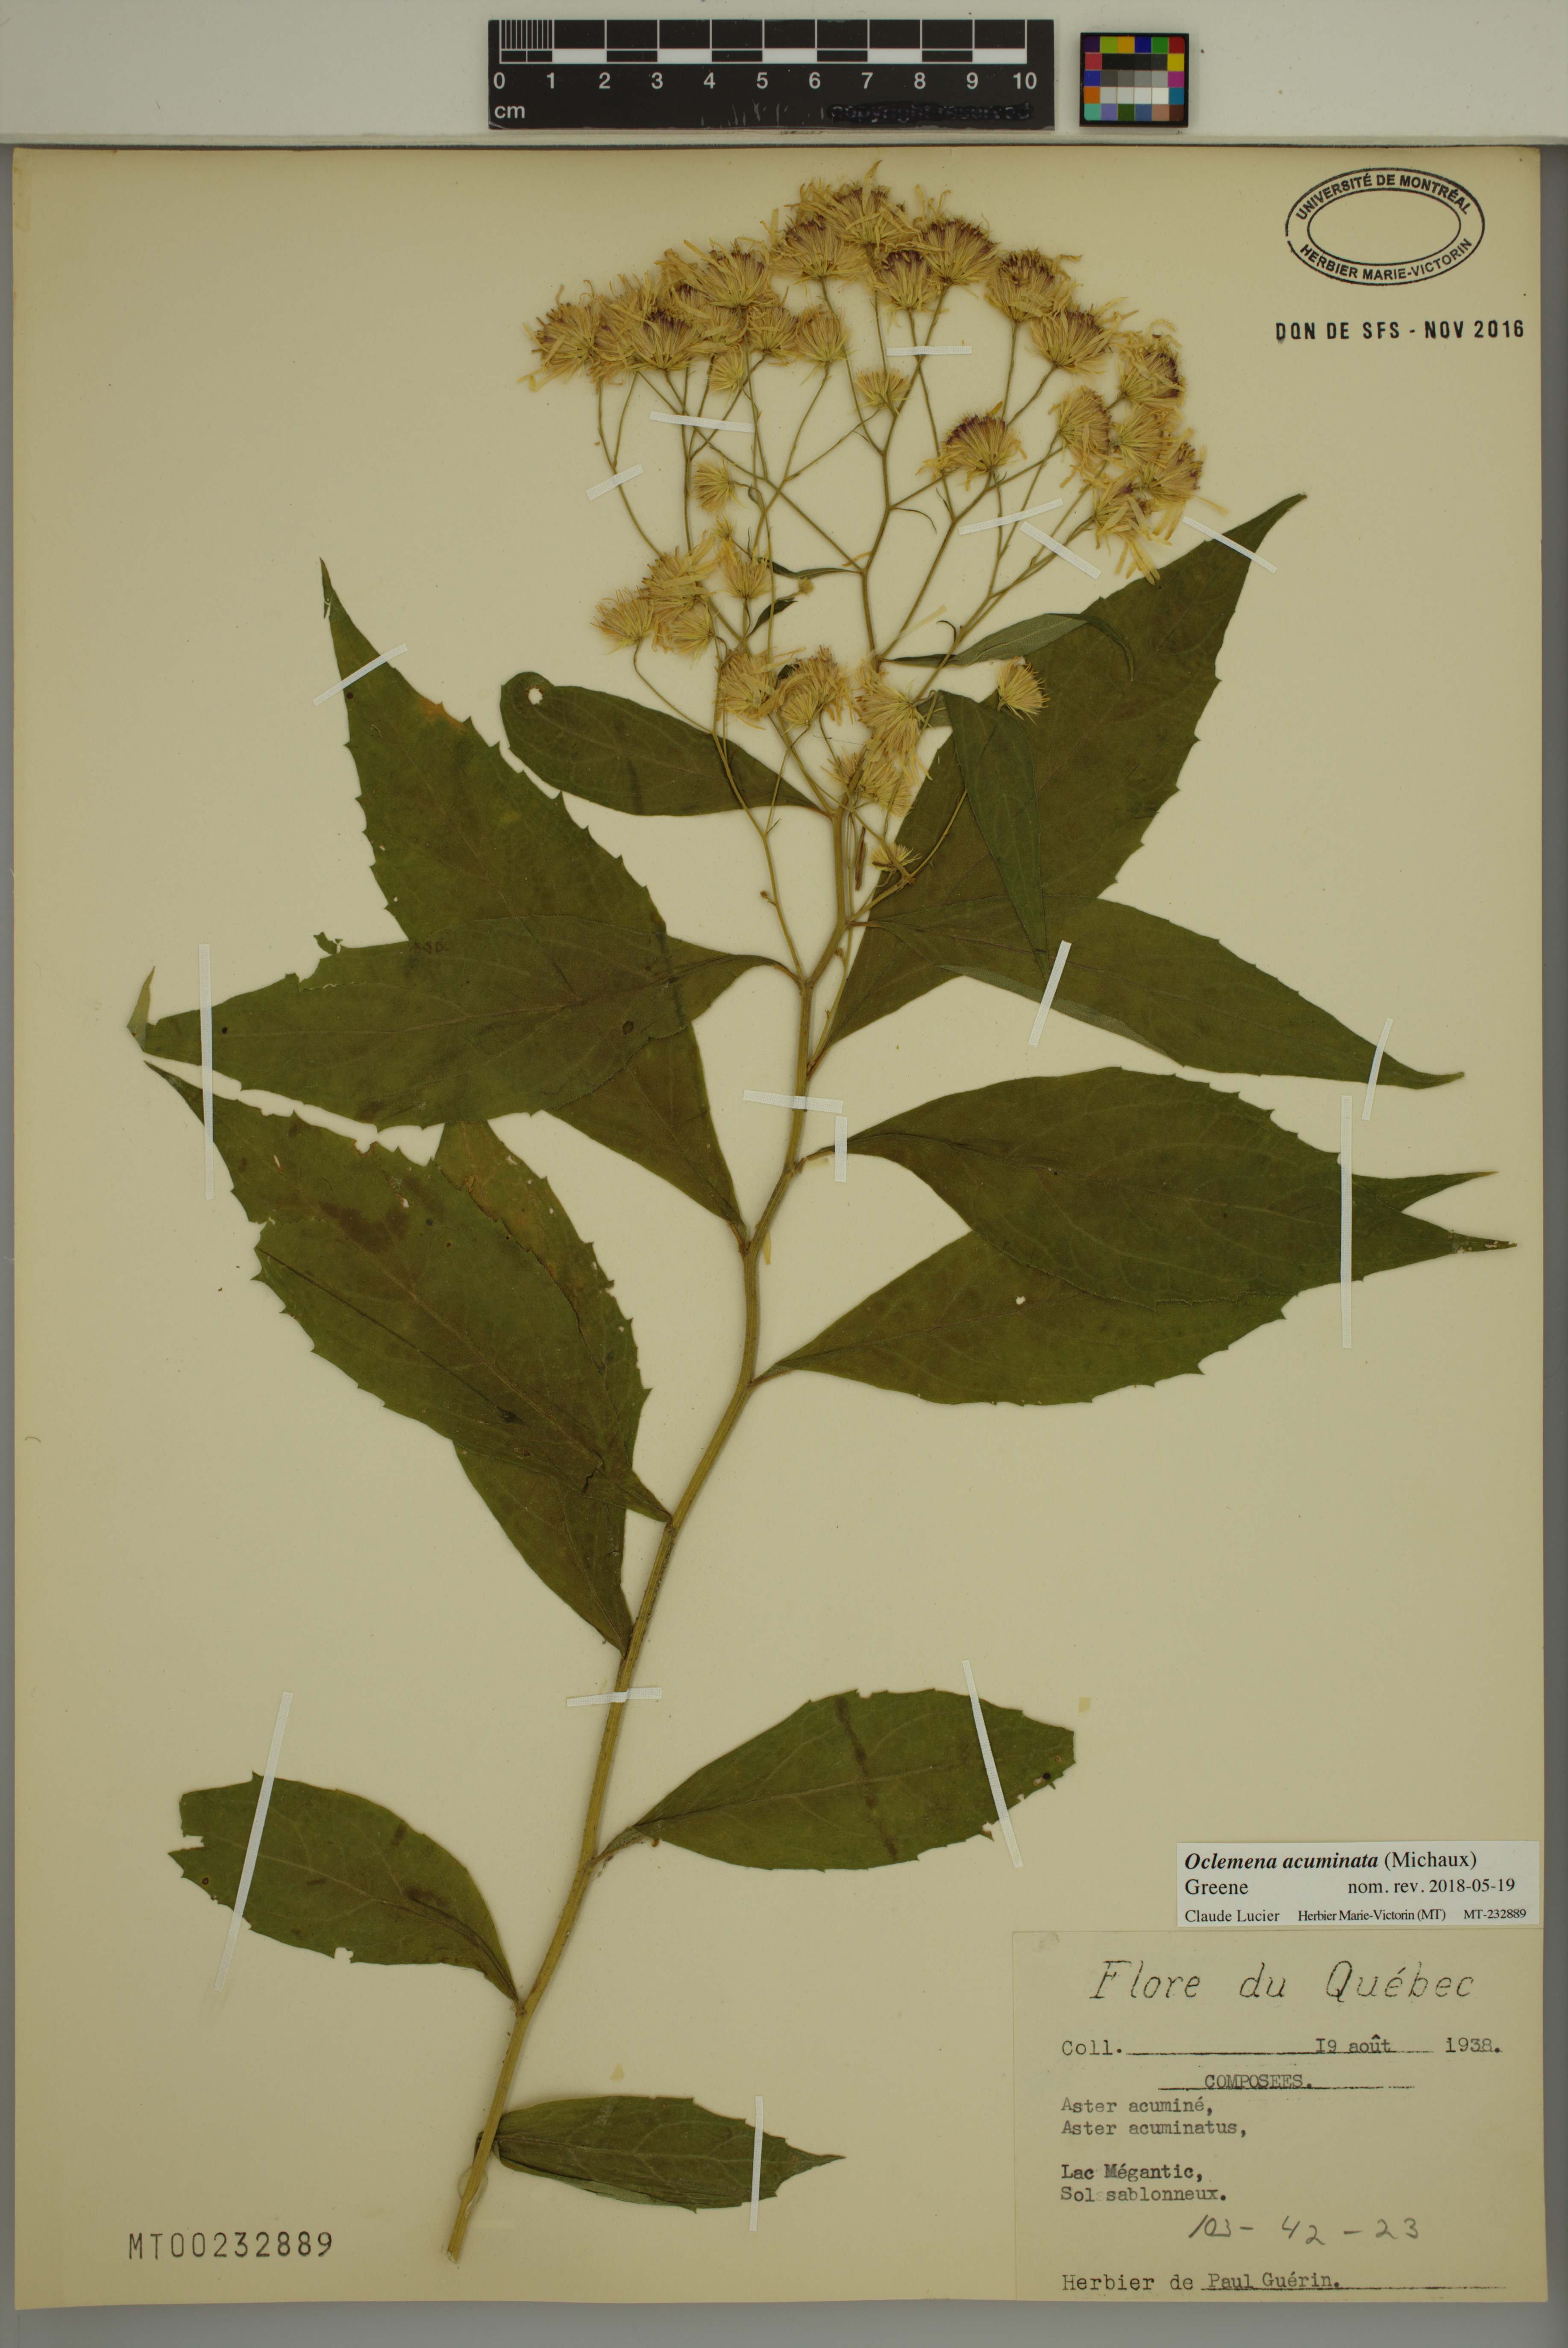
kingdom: Plantae
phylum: Tracheophyta
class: Magnoliopsida
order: Asterales
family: Asteraceae
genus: Oclemena
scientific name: Oclemena acuminata
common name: Mountain aster
